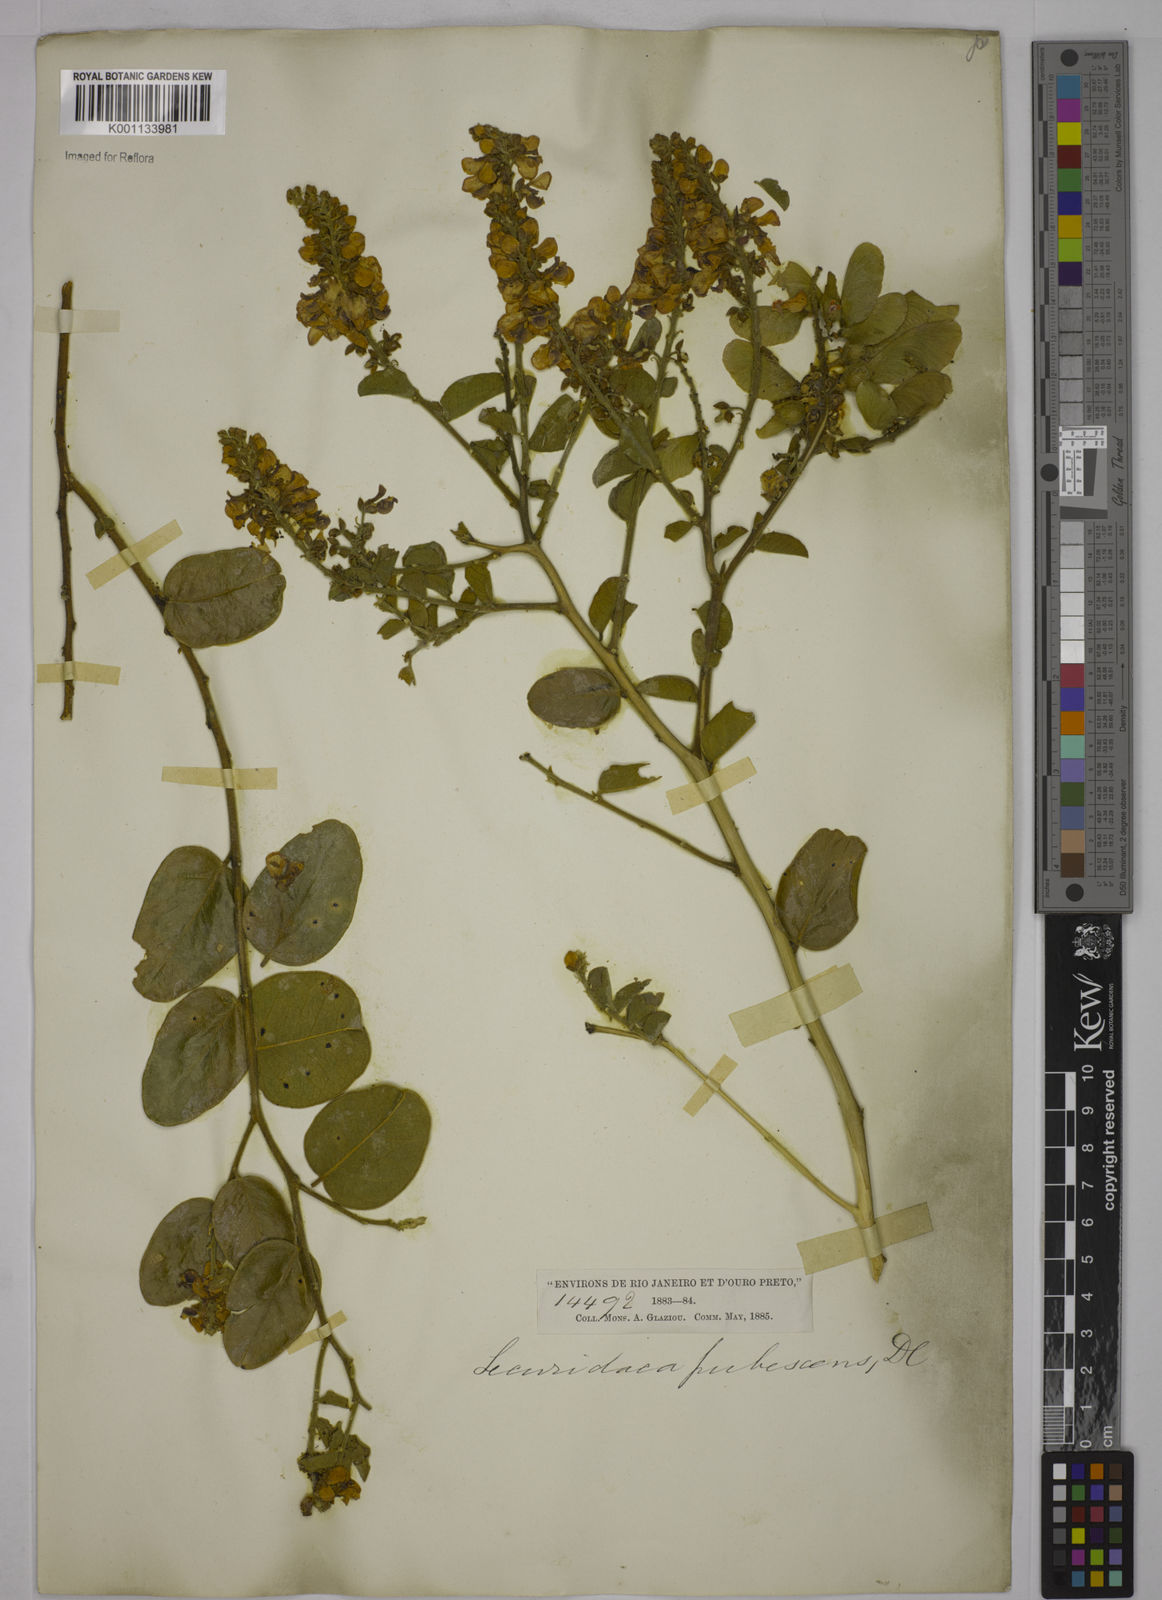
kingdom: Plantae
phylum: Tracheophyta
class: Magnoliopsida
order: Fabales
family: Polygalaceae
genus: Securidaca
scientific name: Securidaca diversifolia
